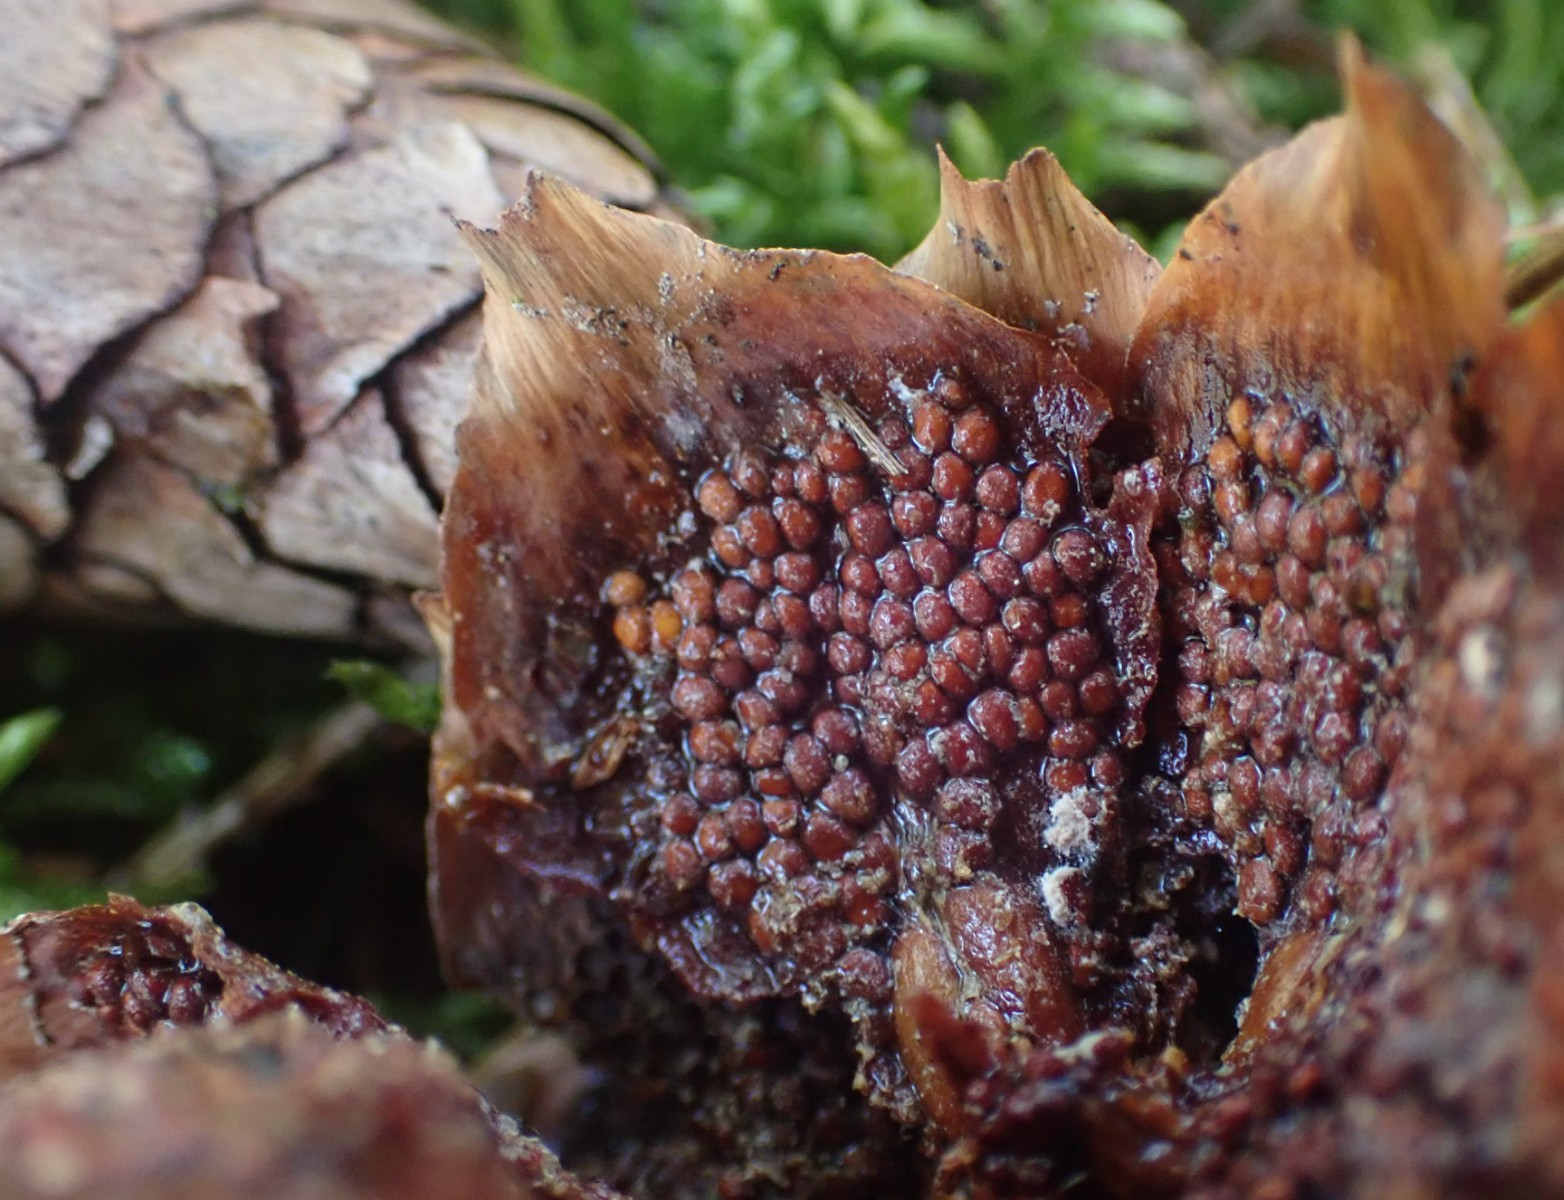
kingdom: Fungi
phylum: Basidiomycota
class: Pucciniomycetes
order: Pucciniales
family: Pucciniastraceae
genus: Thekopsora
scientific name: Thekopsora areolata
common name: grankogle-nålerust
